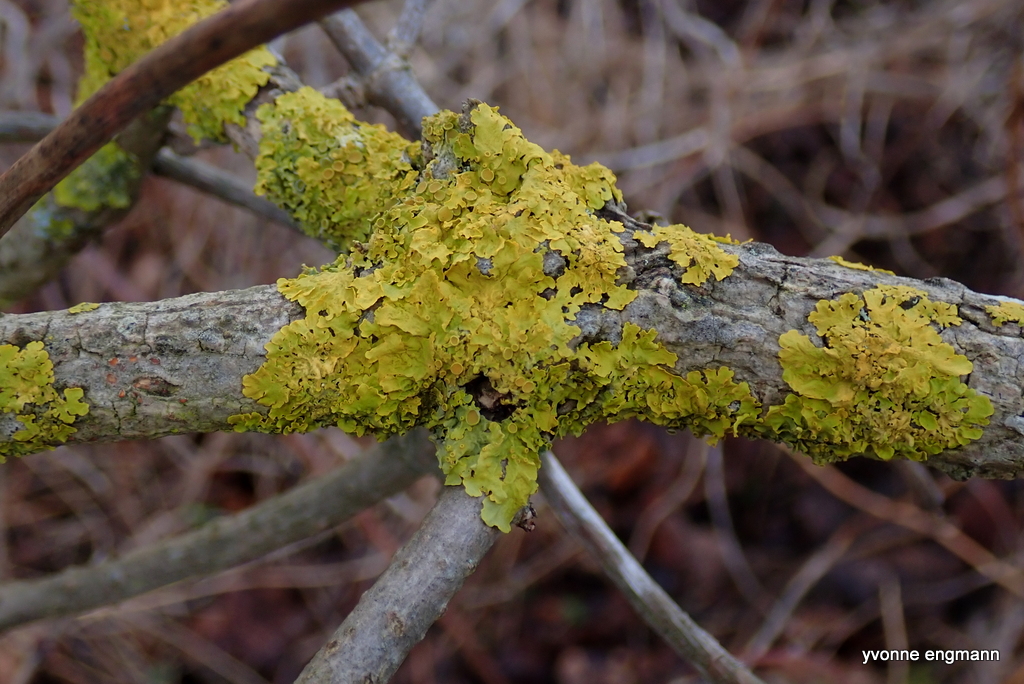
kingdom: Fungi
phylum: Ascomycota
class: Lecanoromycetes
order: Teloschistales
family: Teloschistaceae
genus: Xanthoria
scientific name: Xanthoria parietina
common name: almindelig væggelav
